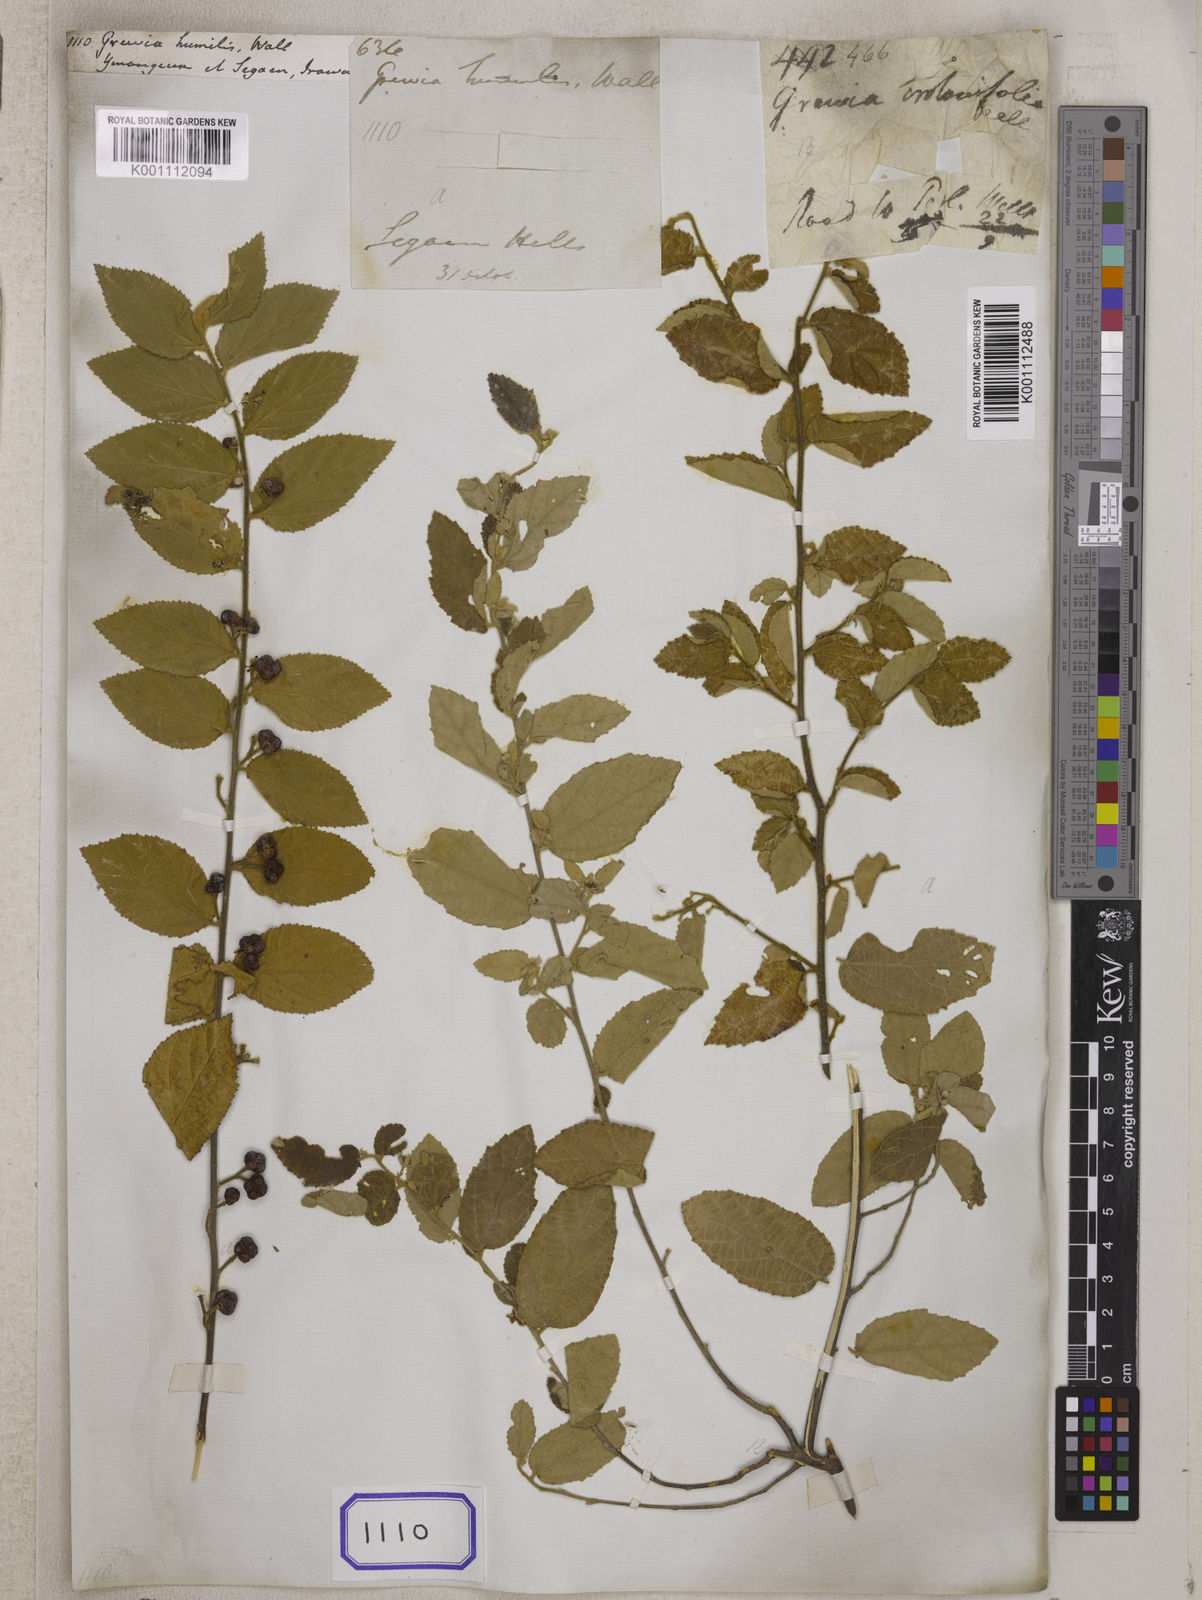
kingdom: Plantae
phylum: Tracheophyta
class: Magnoliopsida
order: Malvales
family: Malvaceae
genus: Grewia
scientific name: Grewia
